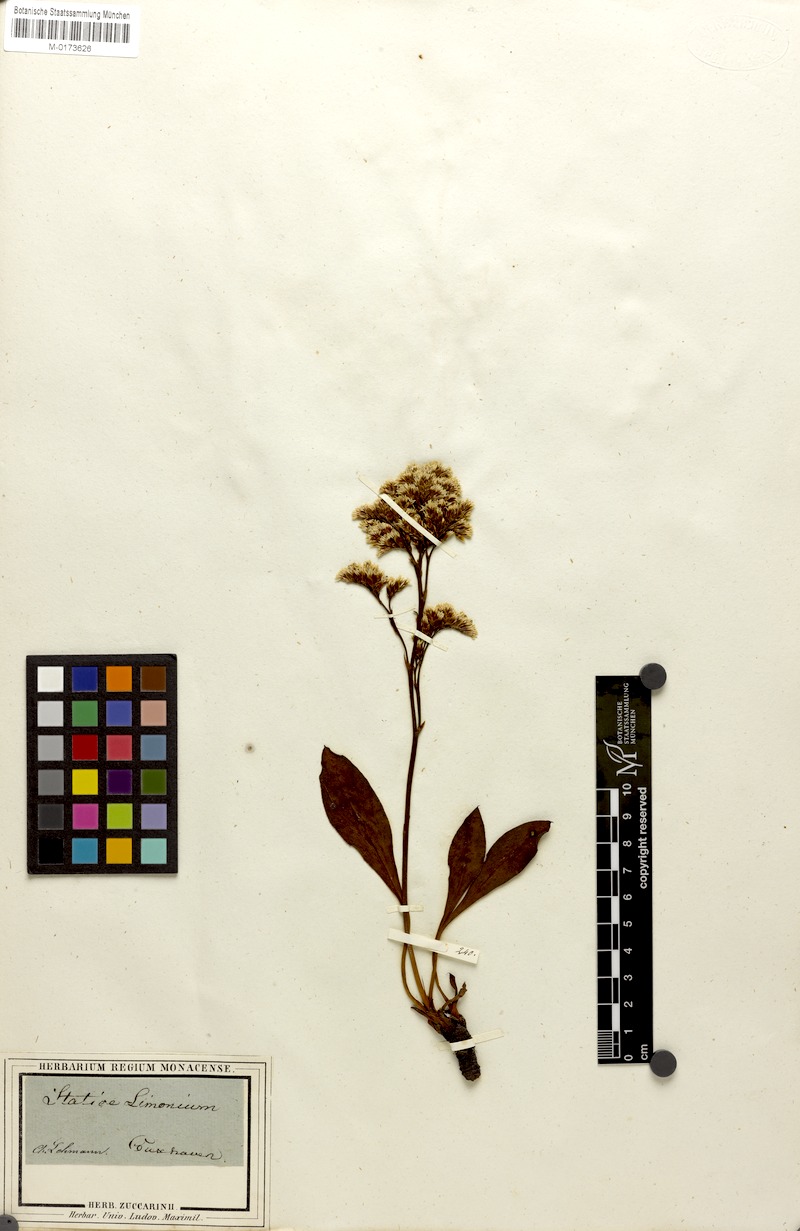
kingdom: Plantae
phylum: Tracheophyta
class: Magnoliopsida
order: Caryophyllales
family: Plumbaginaceae
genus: Limonium
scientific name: Limonium vulgare
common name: Common sea-lavender
